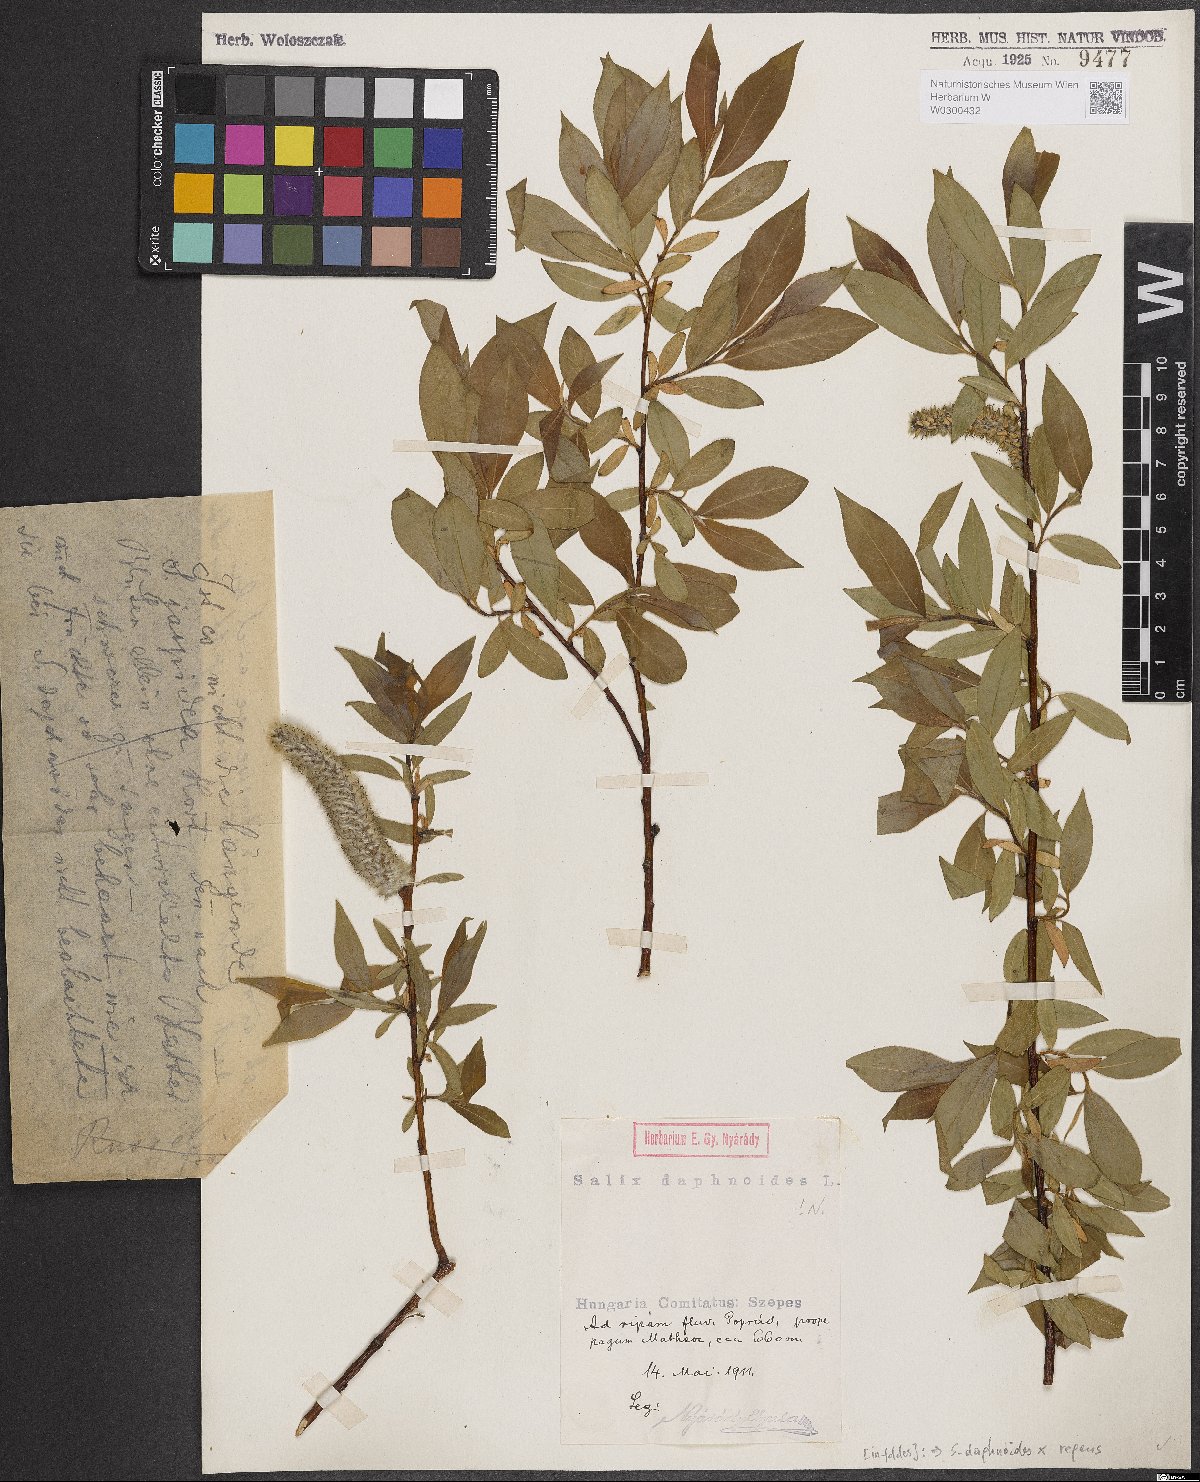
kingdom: Plantae
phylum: Tracheophyta
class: Magnoliopsida
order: Malpighiales
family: Salicaceae
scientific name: Salicaceae
